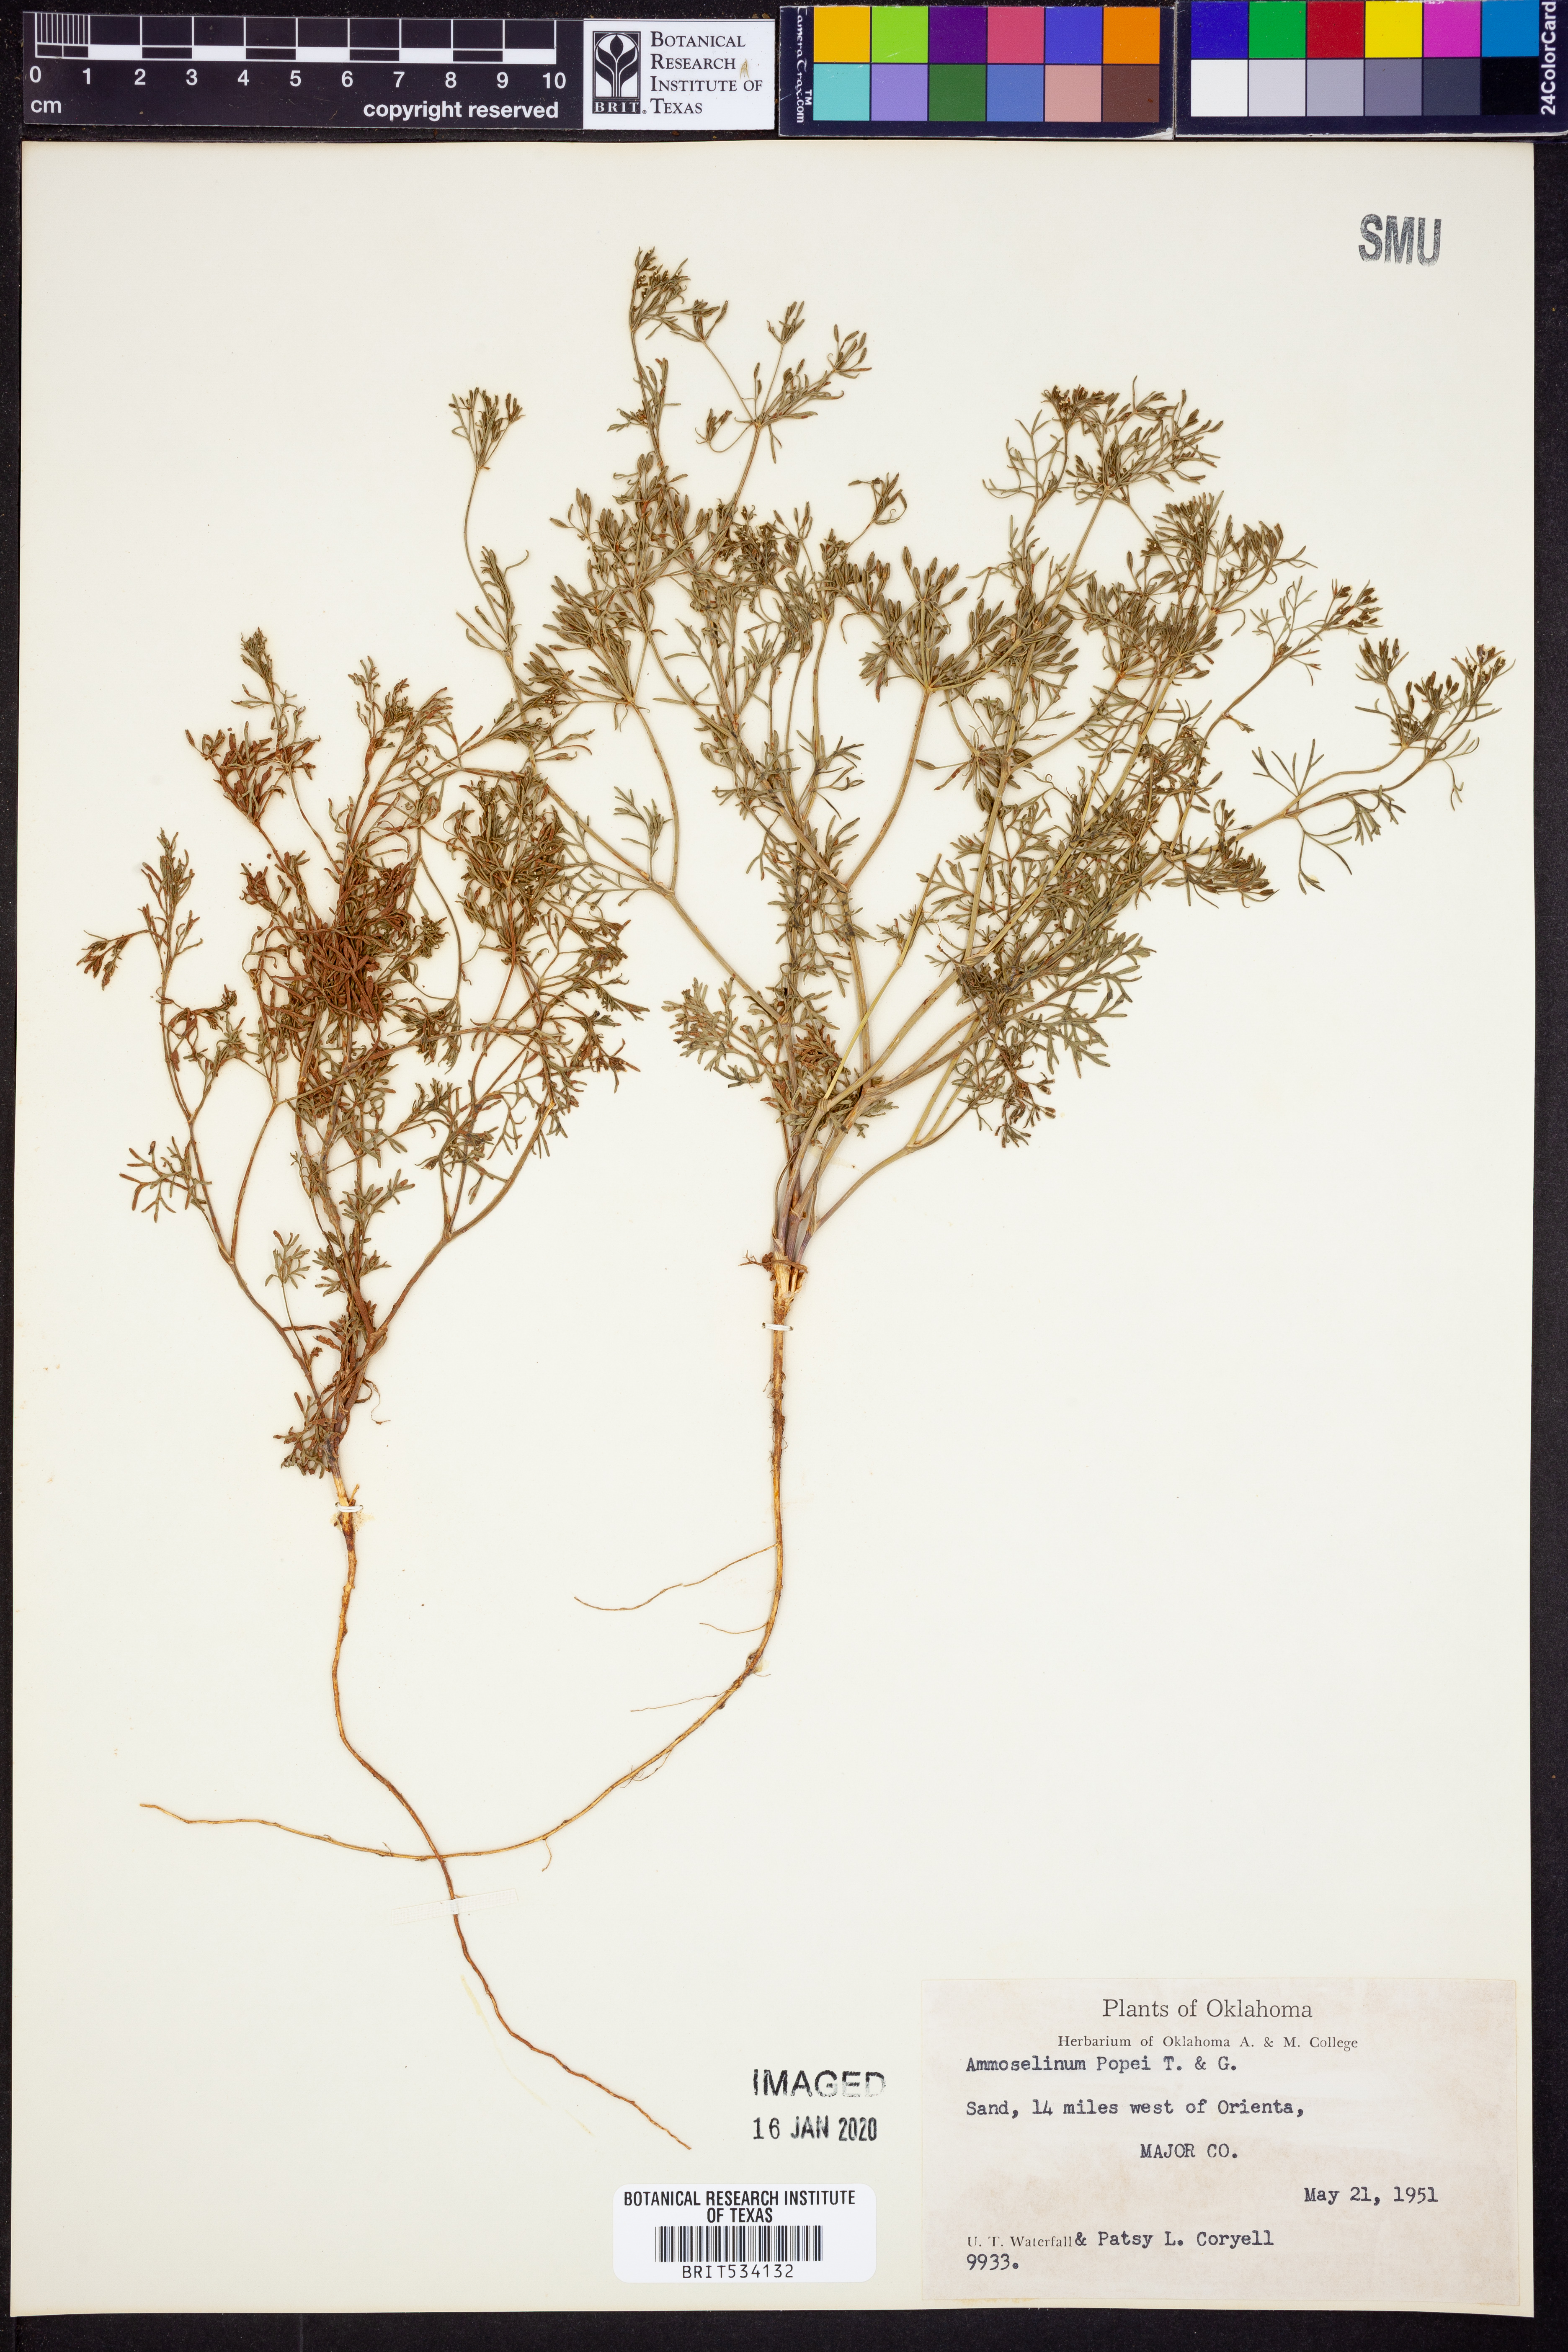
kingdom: Plantae
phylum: Tracheophyta
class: Magnoliopsida
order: Apiales
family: Apiaceae
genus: Ammoselinum
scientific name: Ammoselinum popei
